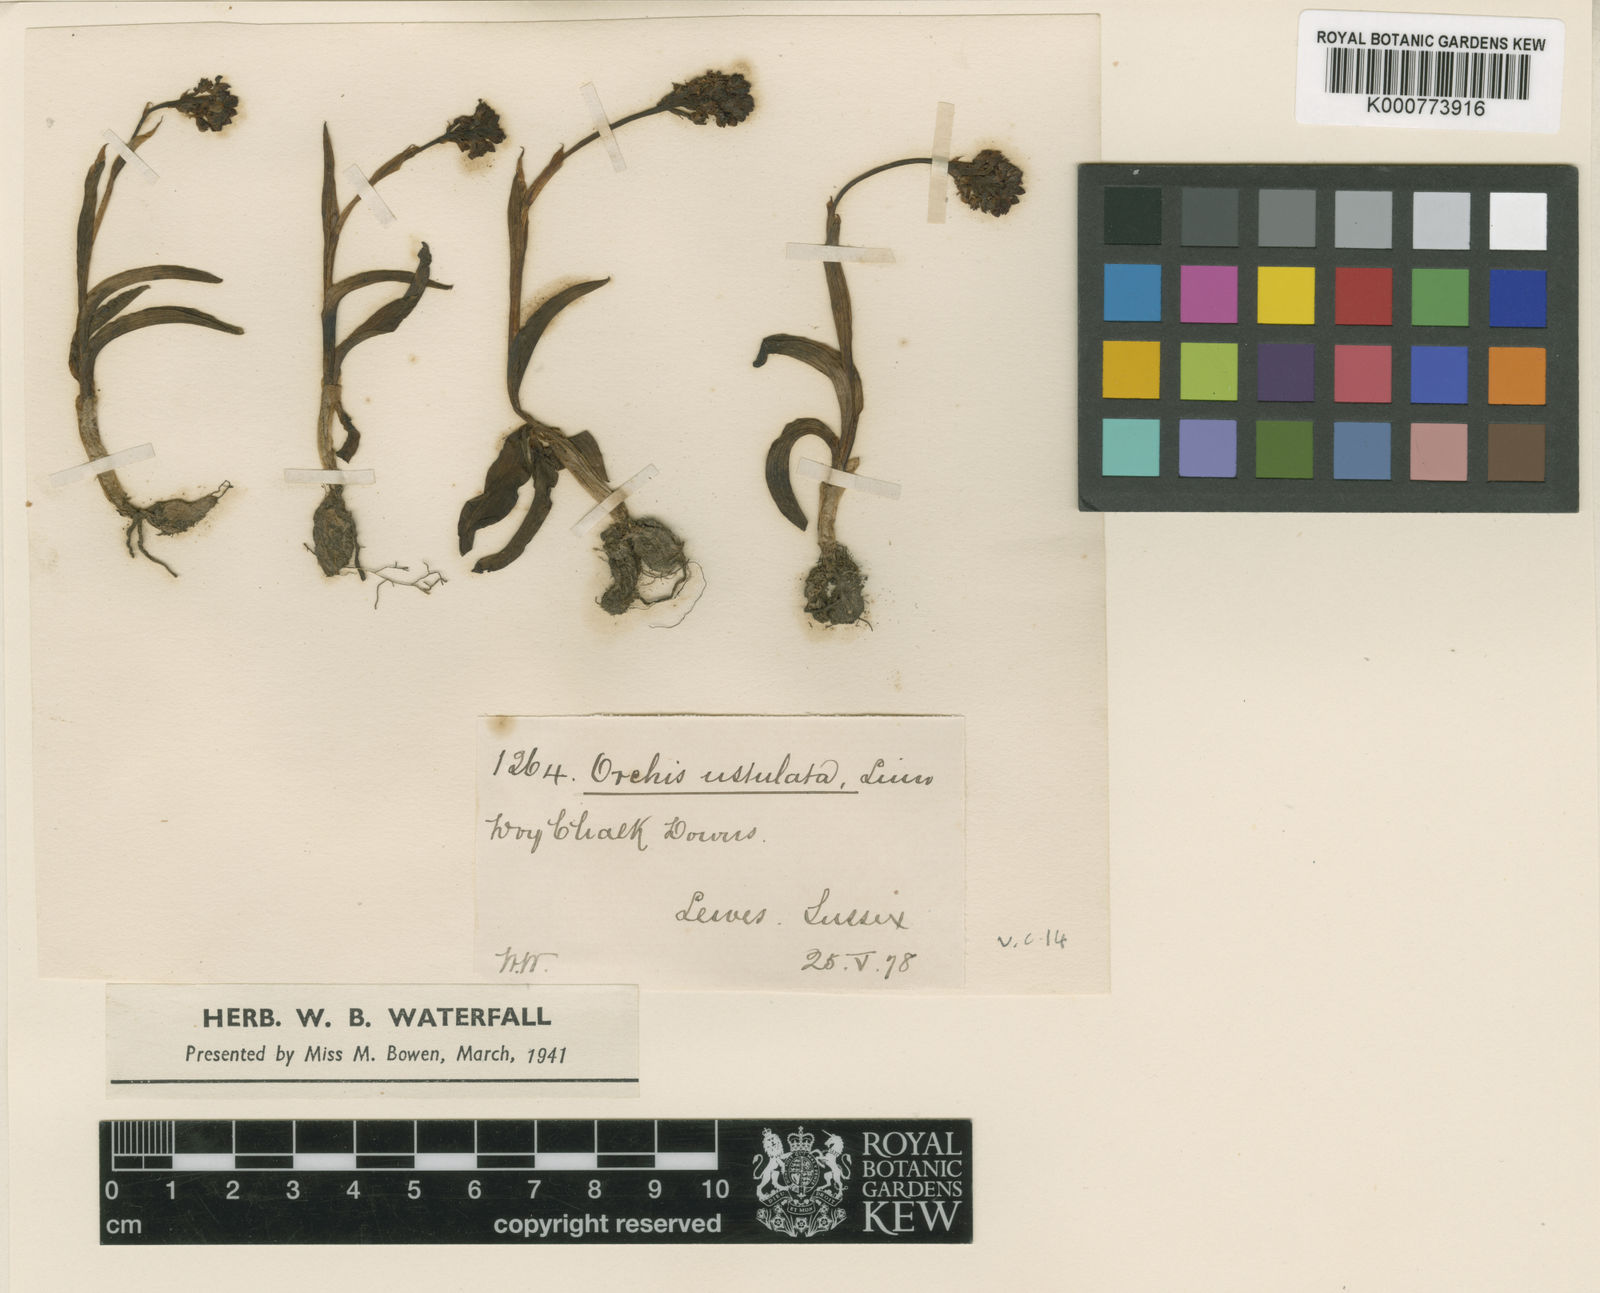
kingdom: Plantae
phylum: Tracheophyta
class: Liliopsida
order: Asparagales
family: Orchidaceae
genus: Neotinea
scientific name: Neotinea ustulata
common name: Burnt orchid
